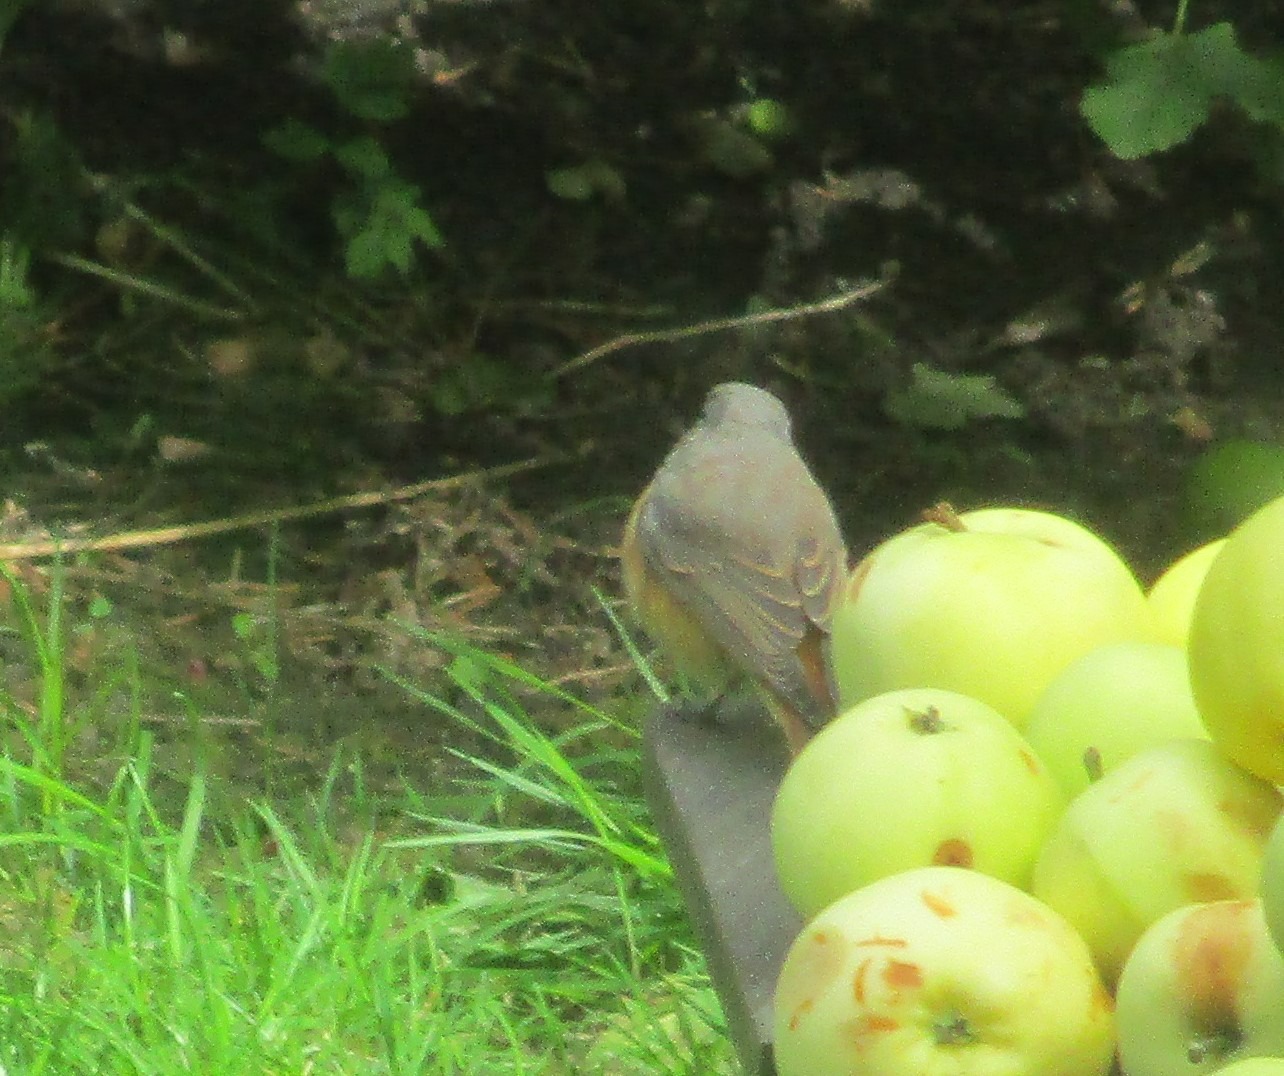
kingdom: Animalia
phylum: Chordata
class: Aves
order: Passeriformes
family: Muscicapidae
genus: Phoenicurus
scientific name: Phoenicurus phoenicurus
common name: Rødstjert
